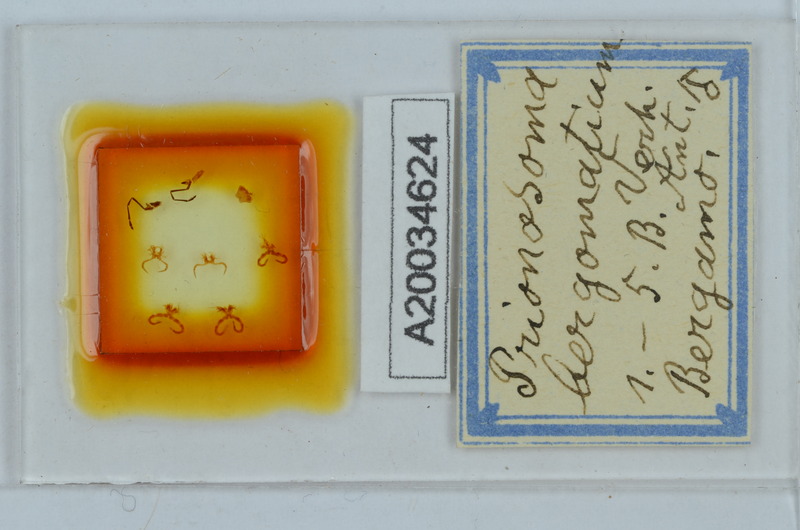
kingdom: Animalia
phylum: Arthropoda
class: Diplopoda
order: Chordeumatida
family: Craspedosomatidae
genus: Bergamosoma
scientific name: Bergamosoma bergomatium
